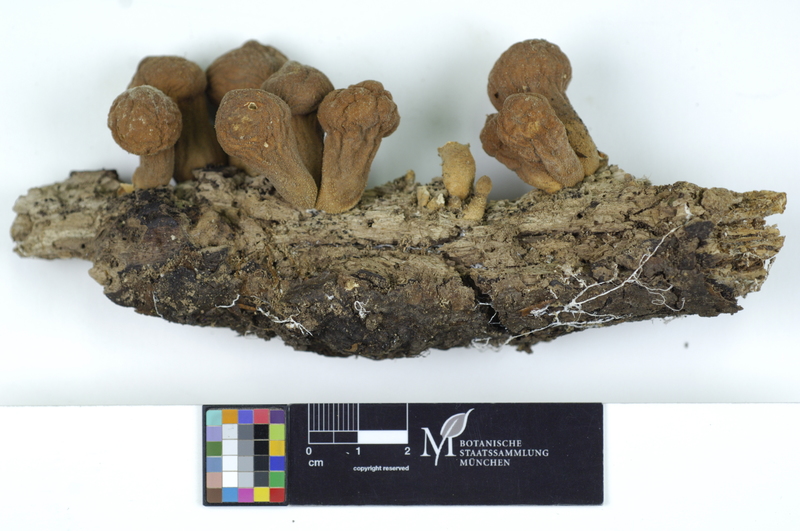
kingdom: Fungi
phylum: Basidiomycota
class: Agaricomycetes
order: Agaricales
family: Lycoperdaceae
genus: Apioperdon
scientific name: Apioperdon pyriforme
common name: Pear-shaped puffball
